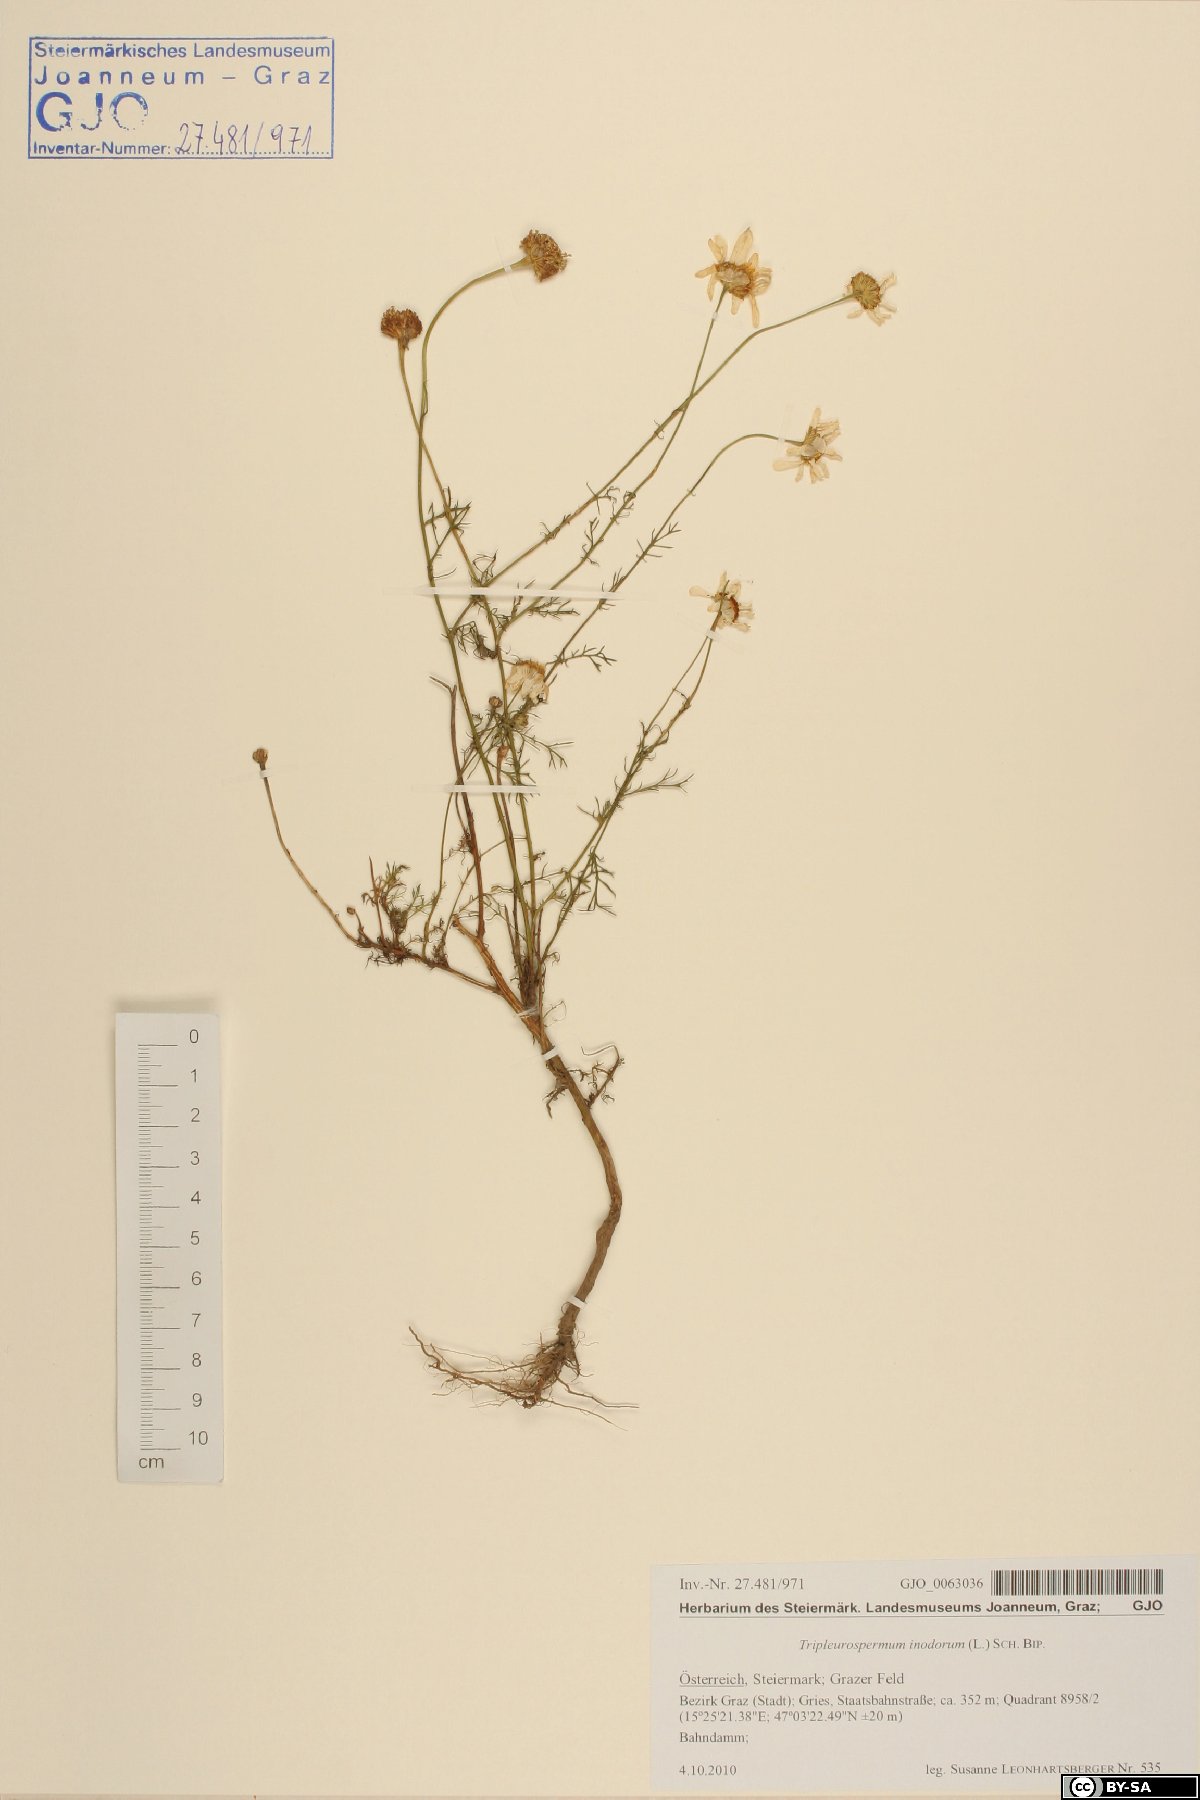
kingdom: Plantae
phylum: Tracheophyta
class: Magnoliopsida
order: Asterales
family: Asteraceae
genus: Tripleurospermum
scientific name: Tripleurospermum inodorum
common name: Scentless mayweed
